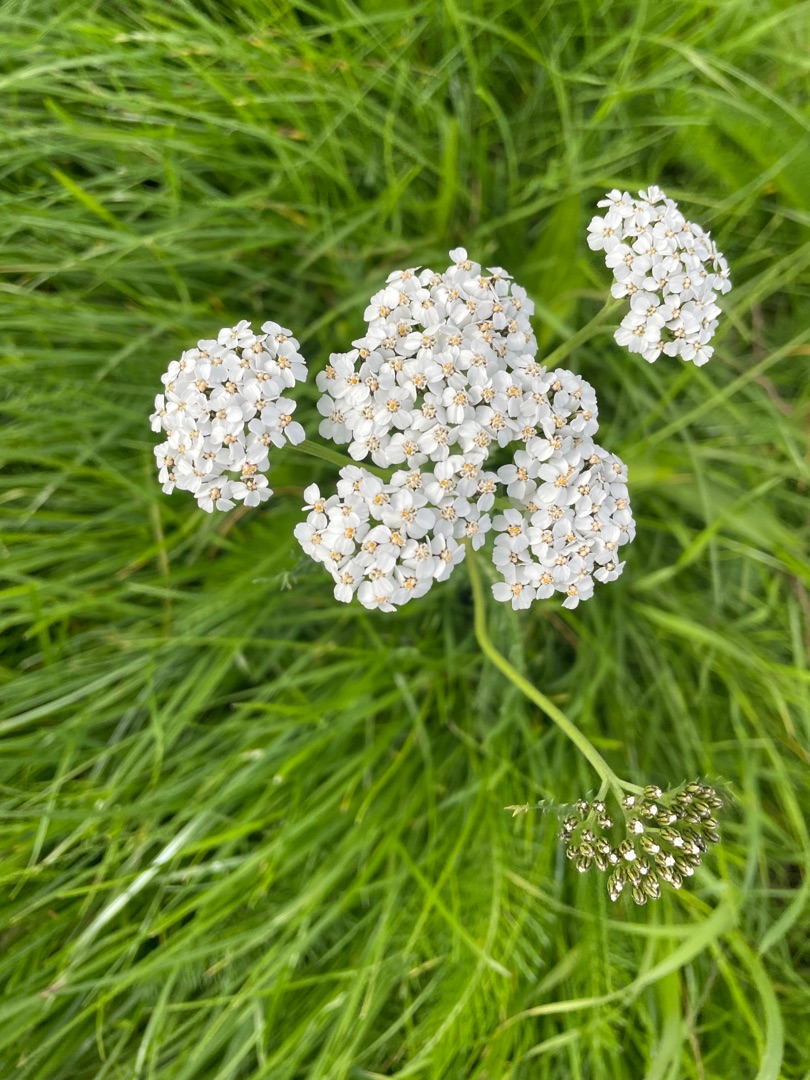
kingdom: Plantae
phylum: Tracheophyta
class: Magnoliopsida
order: Asterales
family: Asteraceae
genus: Achillea
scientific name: Achillea millefolium
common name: Almindelig røllike
